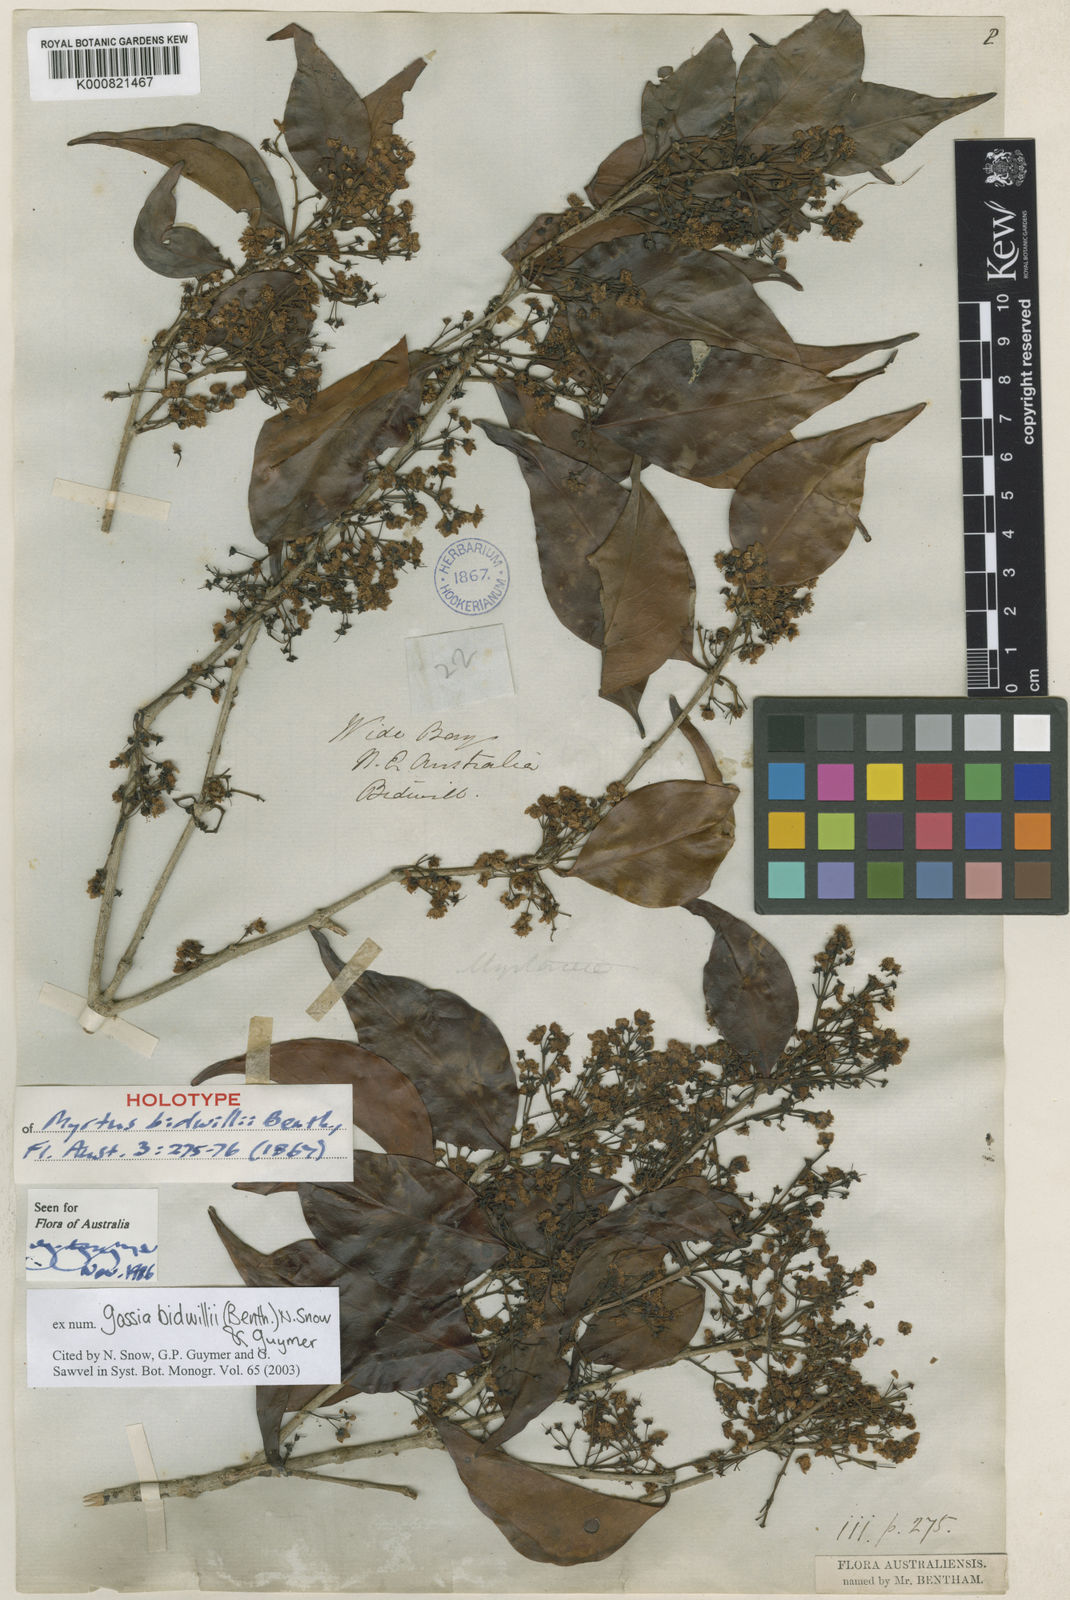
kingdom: Plantae
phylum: Tracheophyta
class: Magnoliopsida
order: Myrtales
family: Myrtaceae
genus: Gossia
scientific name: Gossia bidwillii
